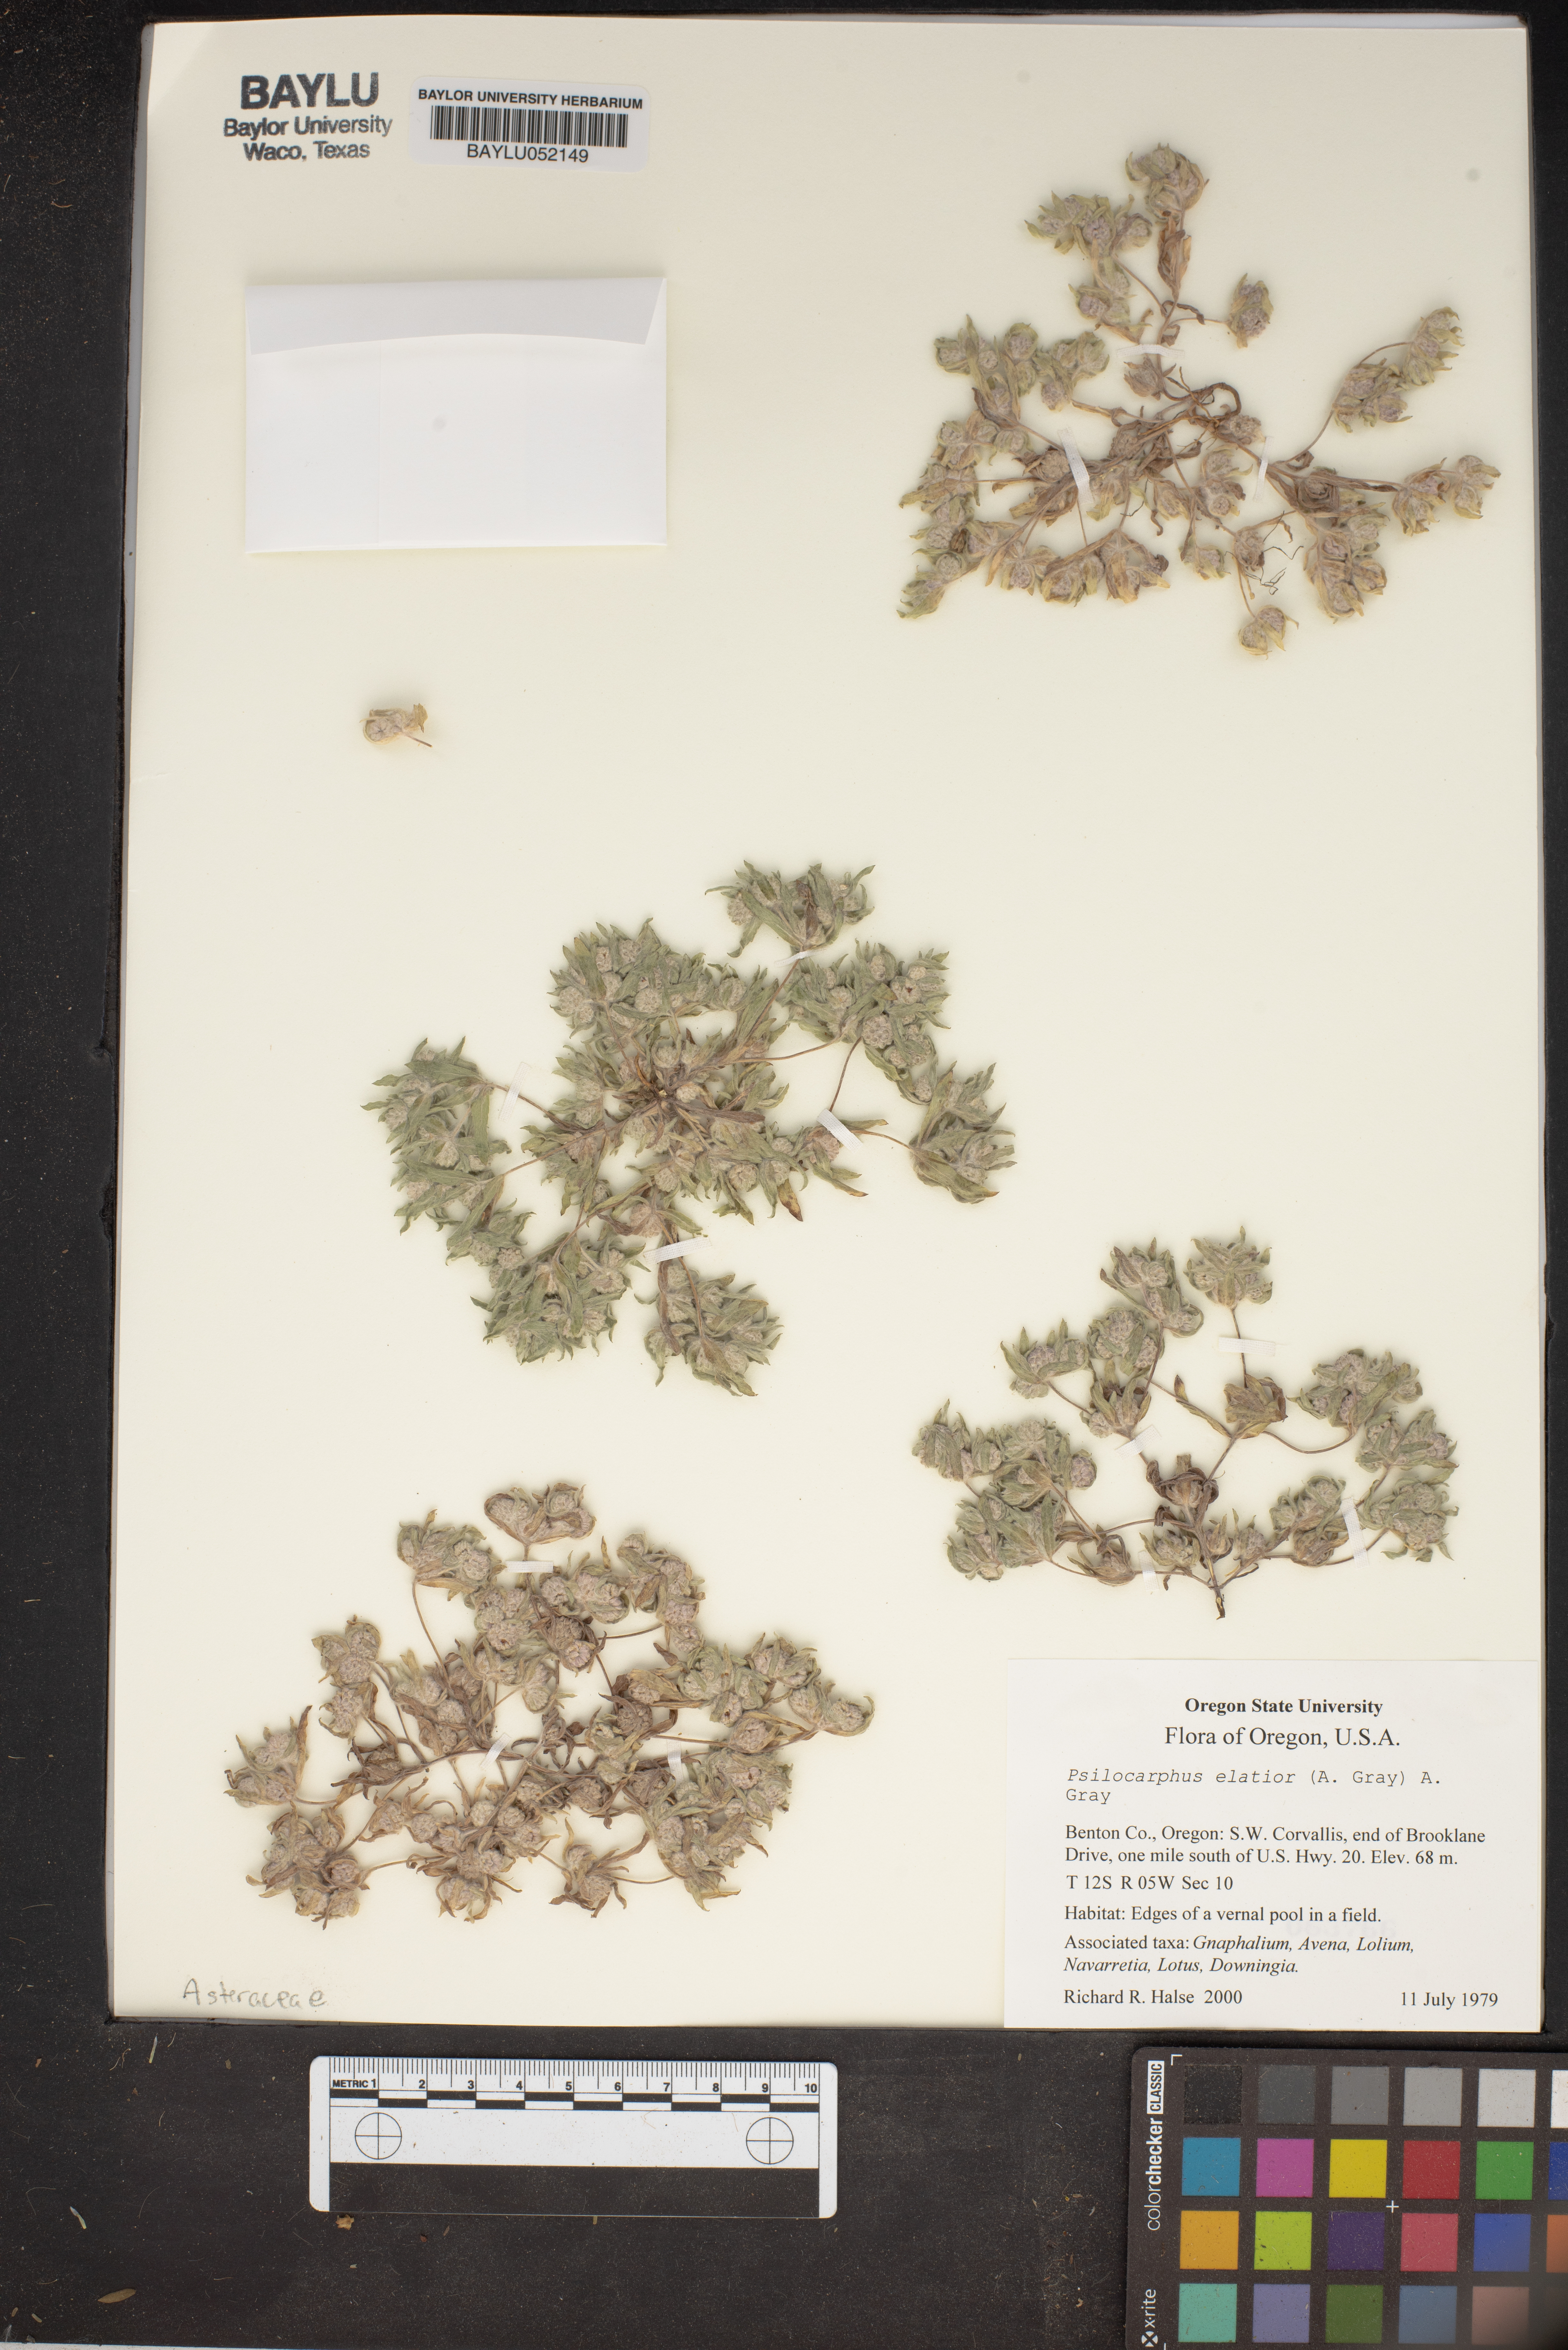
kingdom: Plantae
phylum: Tracheophyta
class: Magnoliopsida
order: Asterales
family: Asteraceae
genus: Psilocarphus
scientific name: Psilocarphus elatior
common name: Meadow woollyheads
